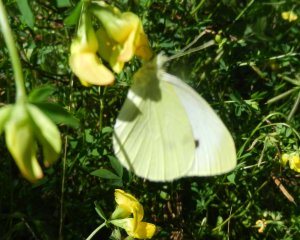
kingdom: Animalia
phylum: Arthropoda
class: Insecta
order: Lepidoptera
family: Pieridae
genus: Pieris
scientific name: Pieris rapae
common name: Cabbage White
